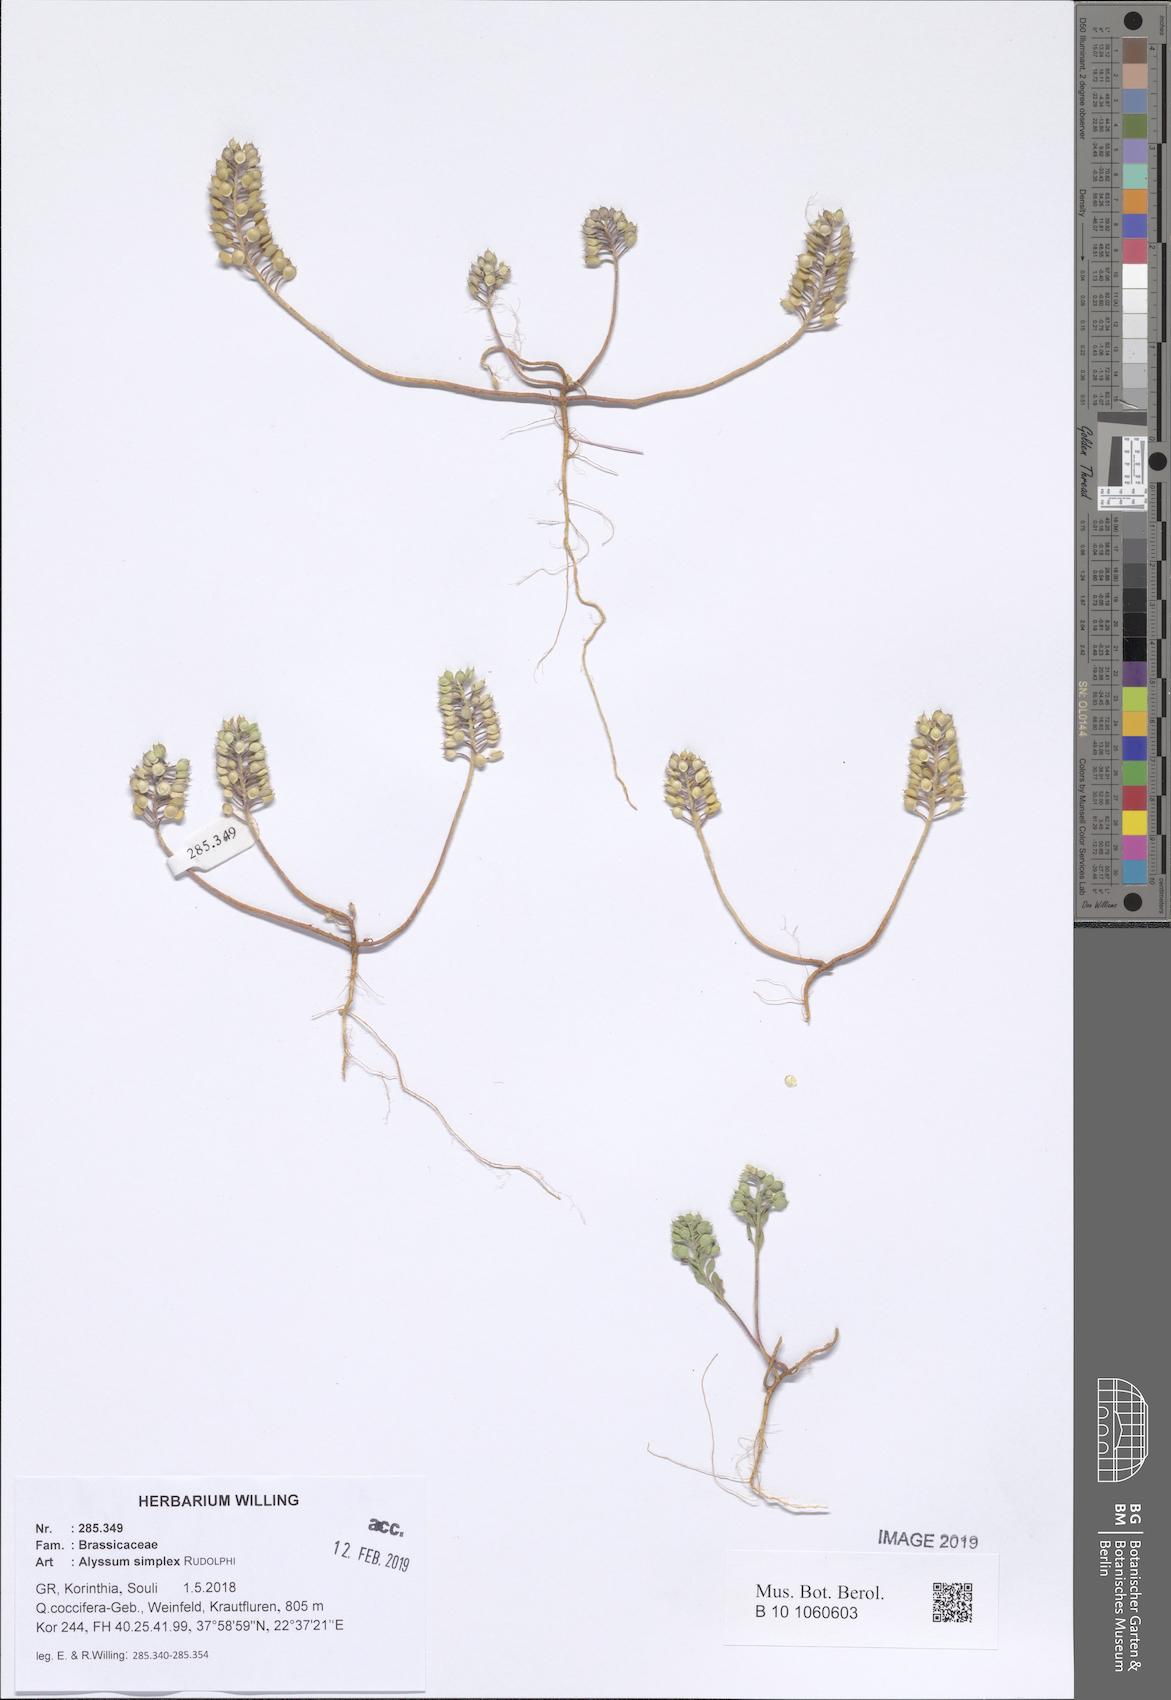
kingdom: Plantae
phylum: Tracheophyta
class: Magnoliopsida
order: Brassicales
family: Brassicaceae
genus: Alyssum
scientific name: Alyssum simplex
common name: Alyssum
